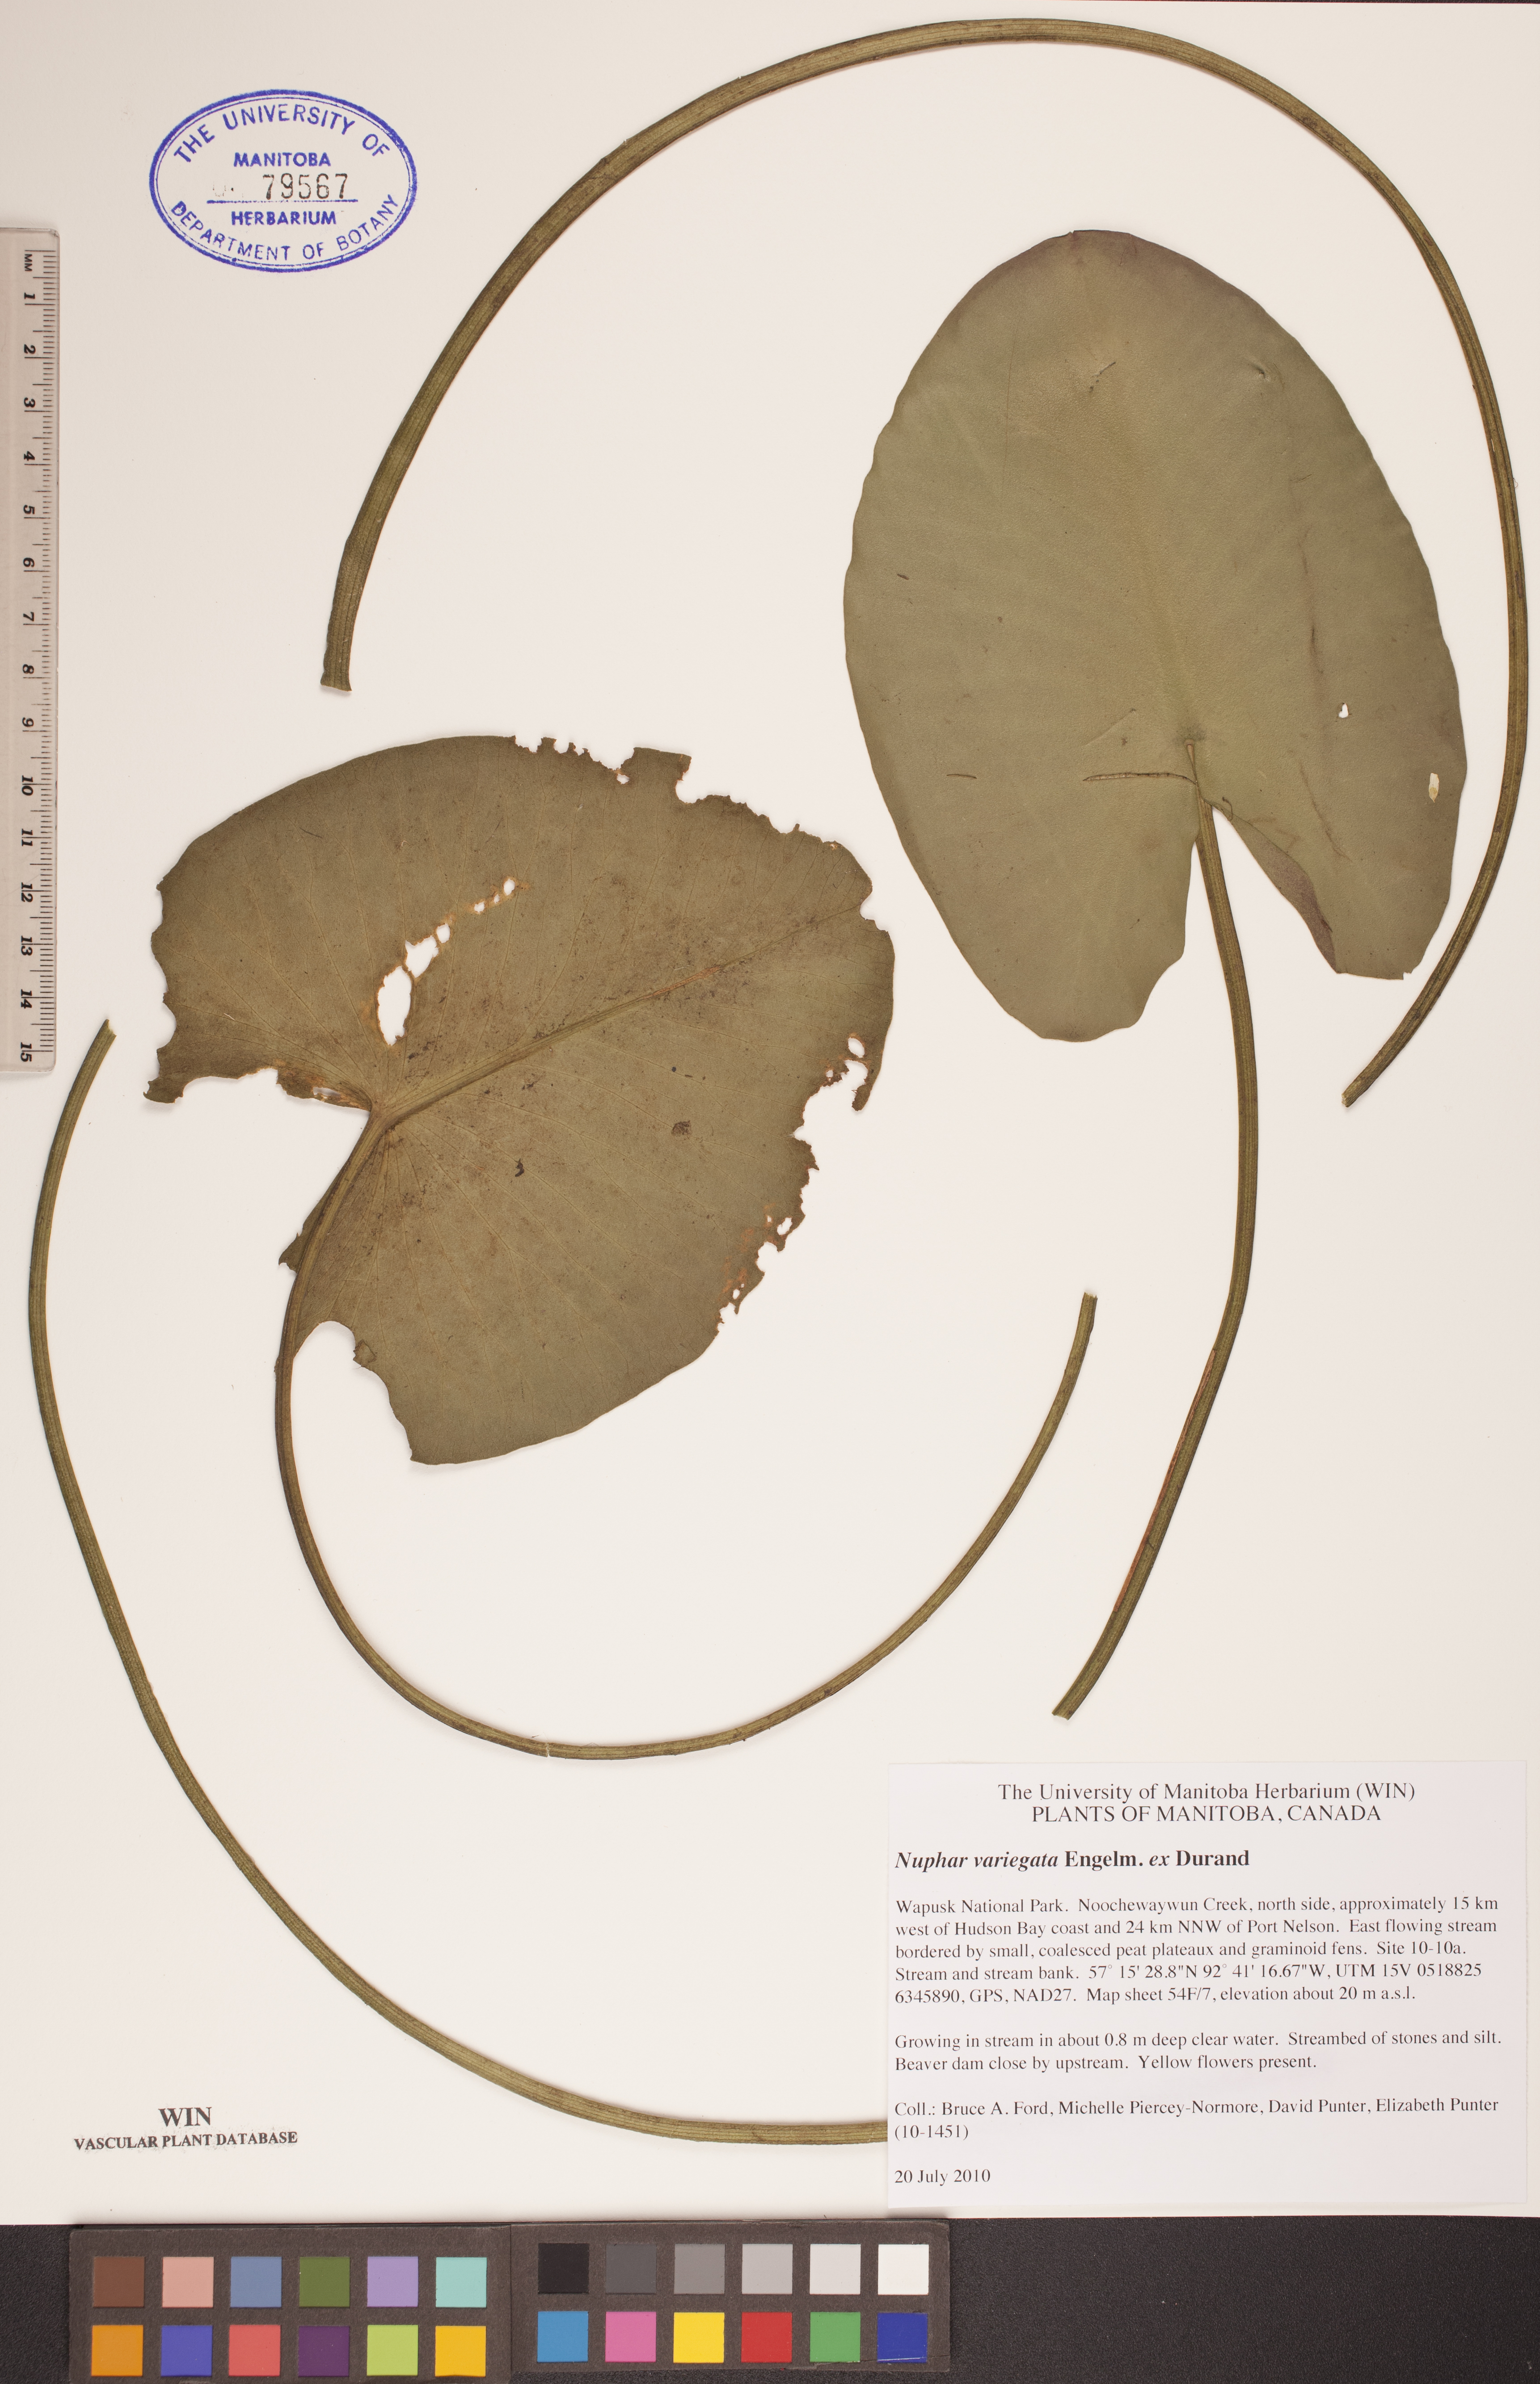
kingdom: Plantae
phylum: Tracheophyta
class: Magnoliopsida
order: Nymphaeales
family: Nymphaeaceae
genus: Nuphar
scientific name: Nuphar variegata
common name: Beaver-root
